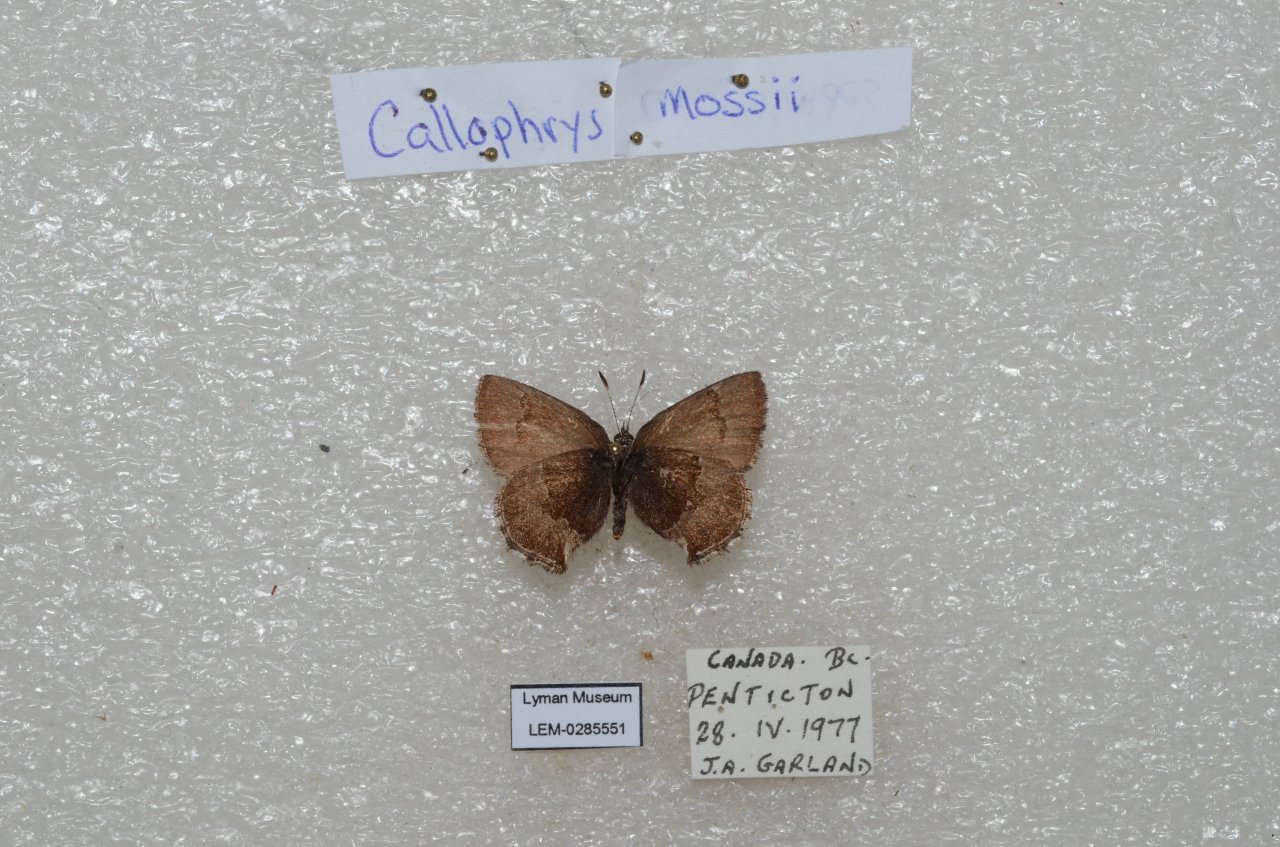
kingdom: Animalia
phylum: Arthropoda
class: Insecta
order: Lepidoptera
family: Lycaenidae
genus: Callophrys
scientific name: Callophrys mossii
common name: Moss' Elfin
